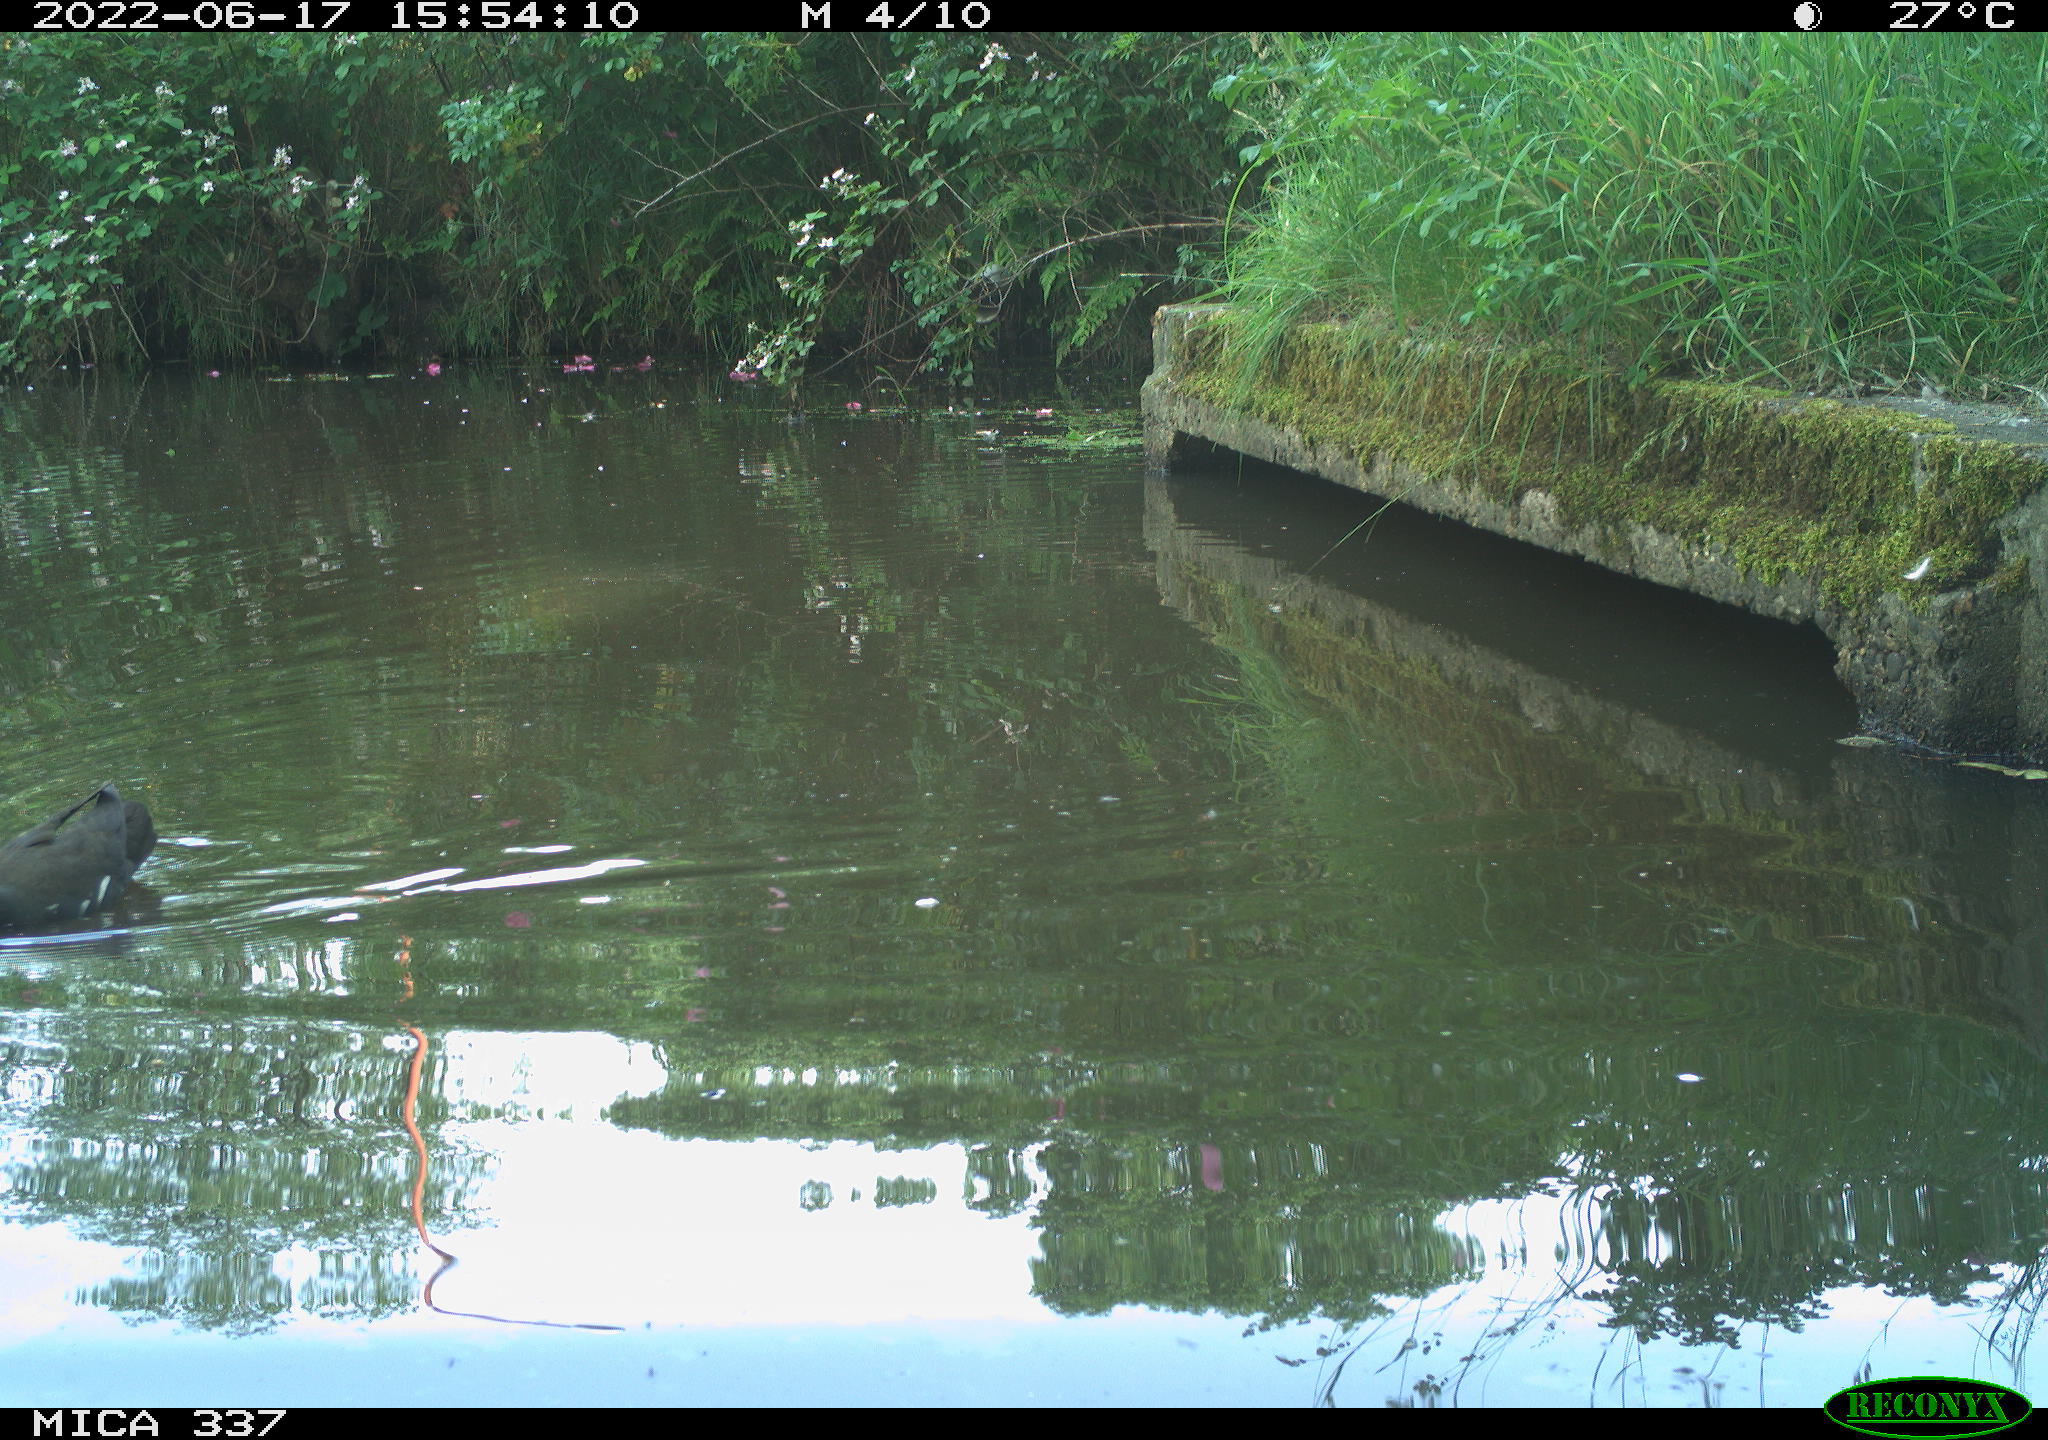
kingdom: Animalia
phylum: Chordata
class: Aves
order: Gruiformes
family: Rallidae
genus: Gallinula
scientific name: Gallinula chloropus
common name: Common moorhen
